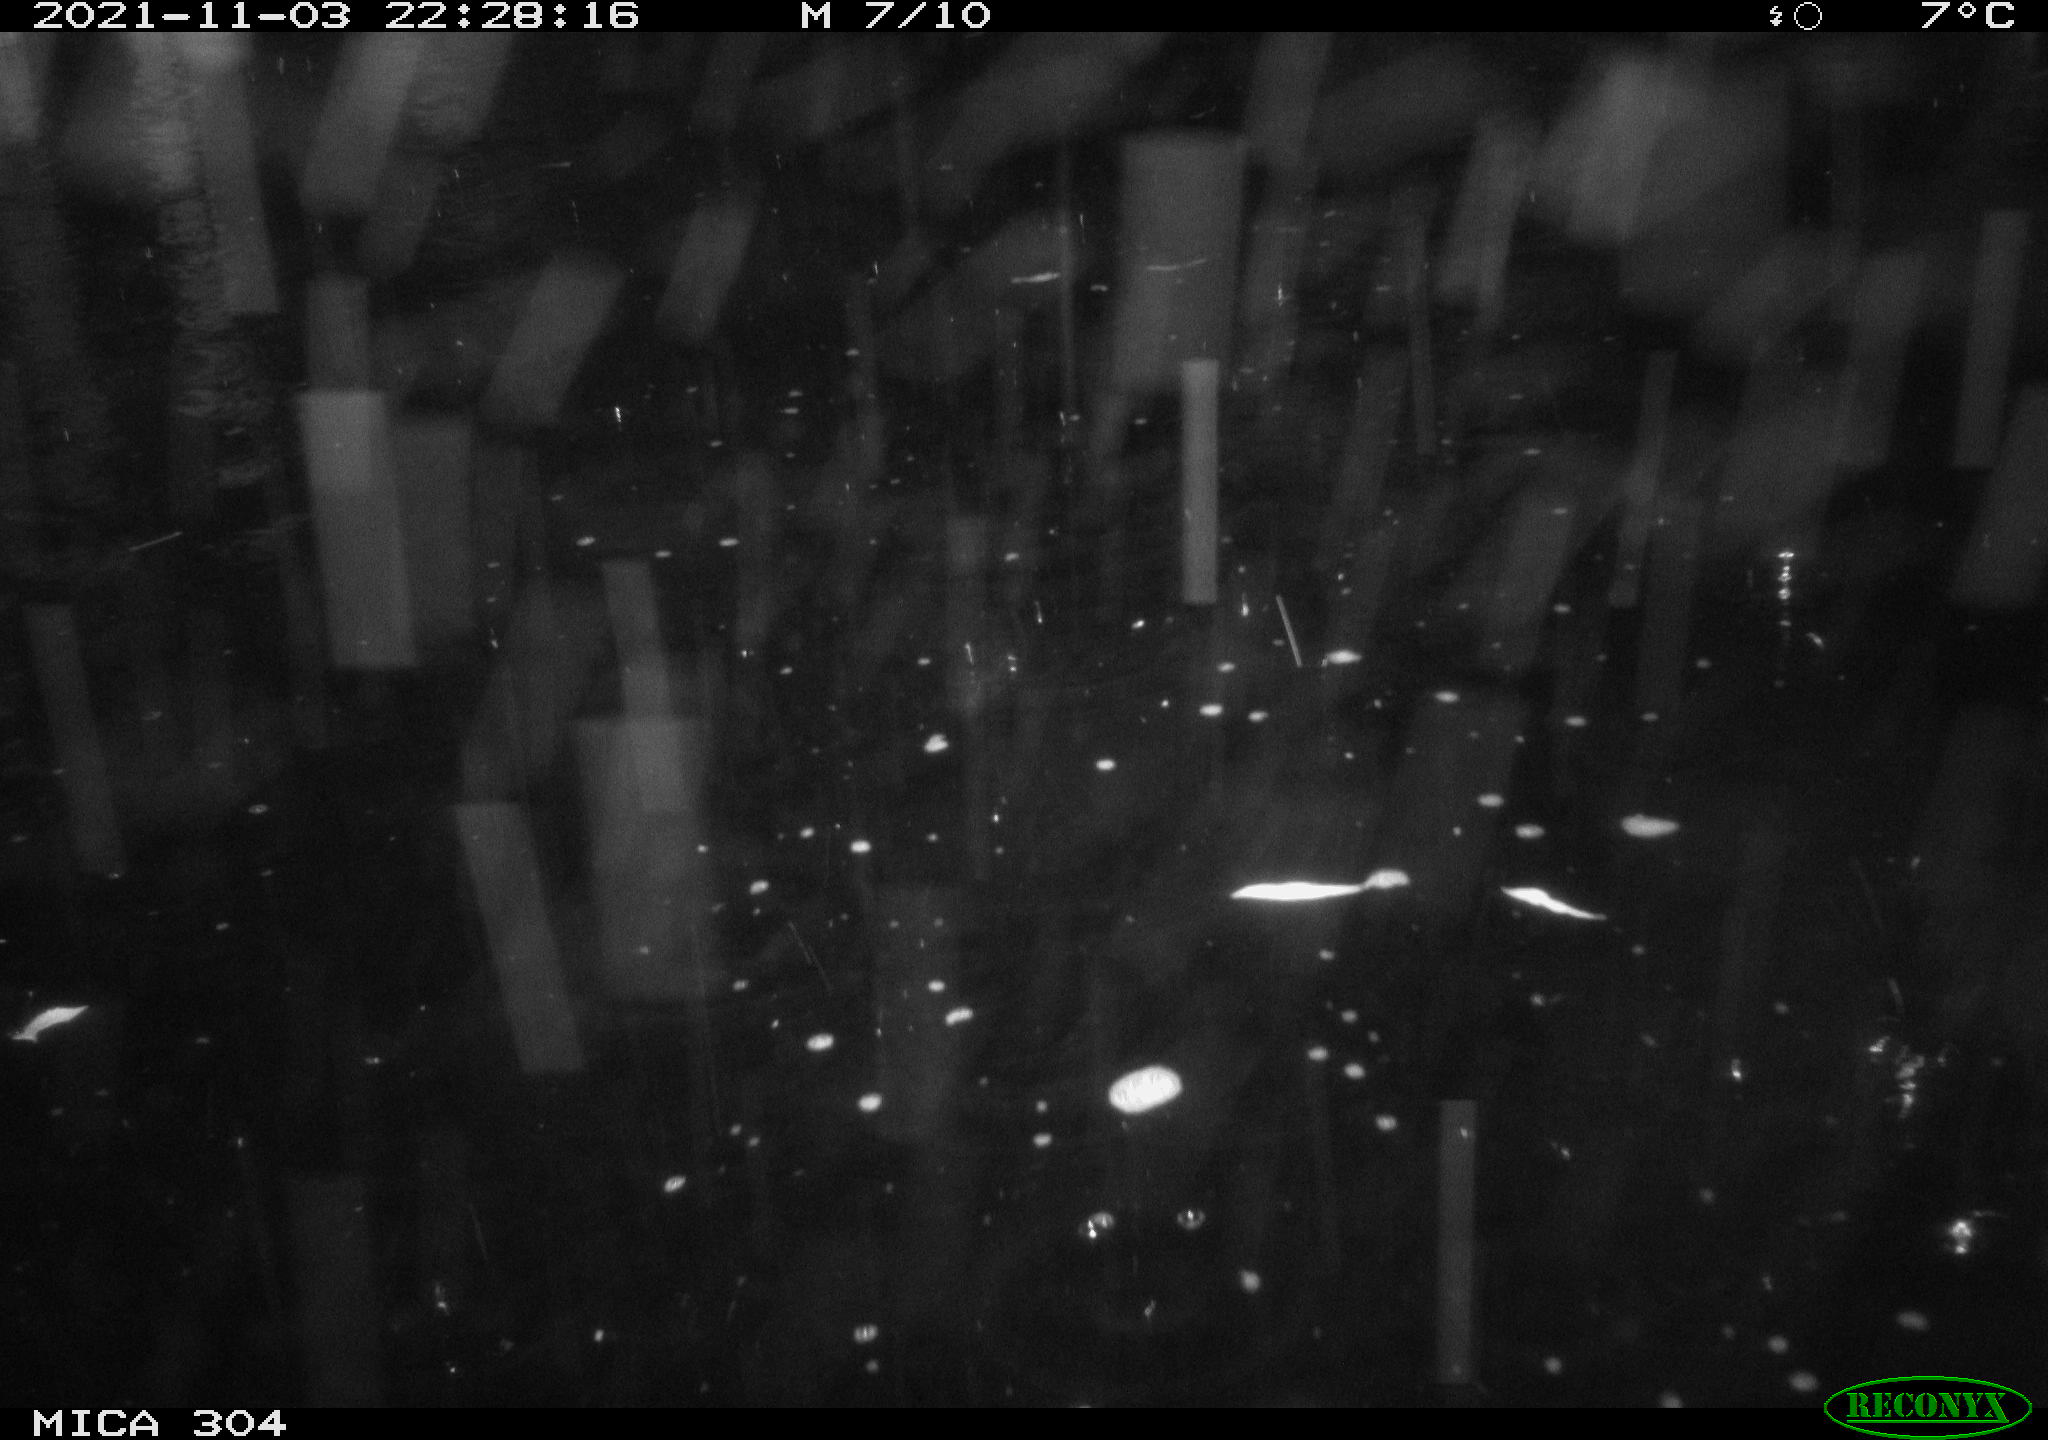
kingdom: Animalia
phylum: Chordata
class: Mammalia
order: Rodentia
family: Muridae
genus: Rattus
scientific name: Rattus norvegicus
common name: Brown rat
